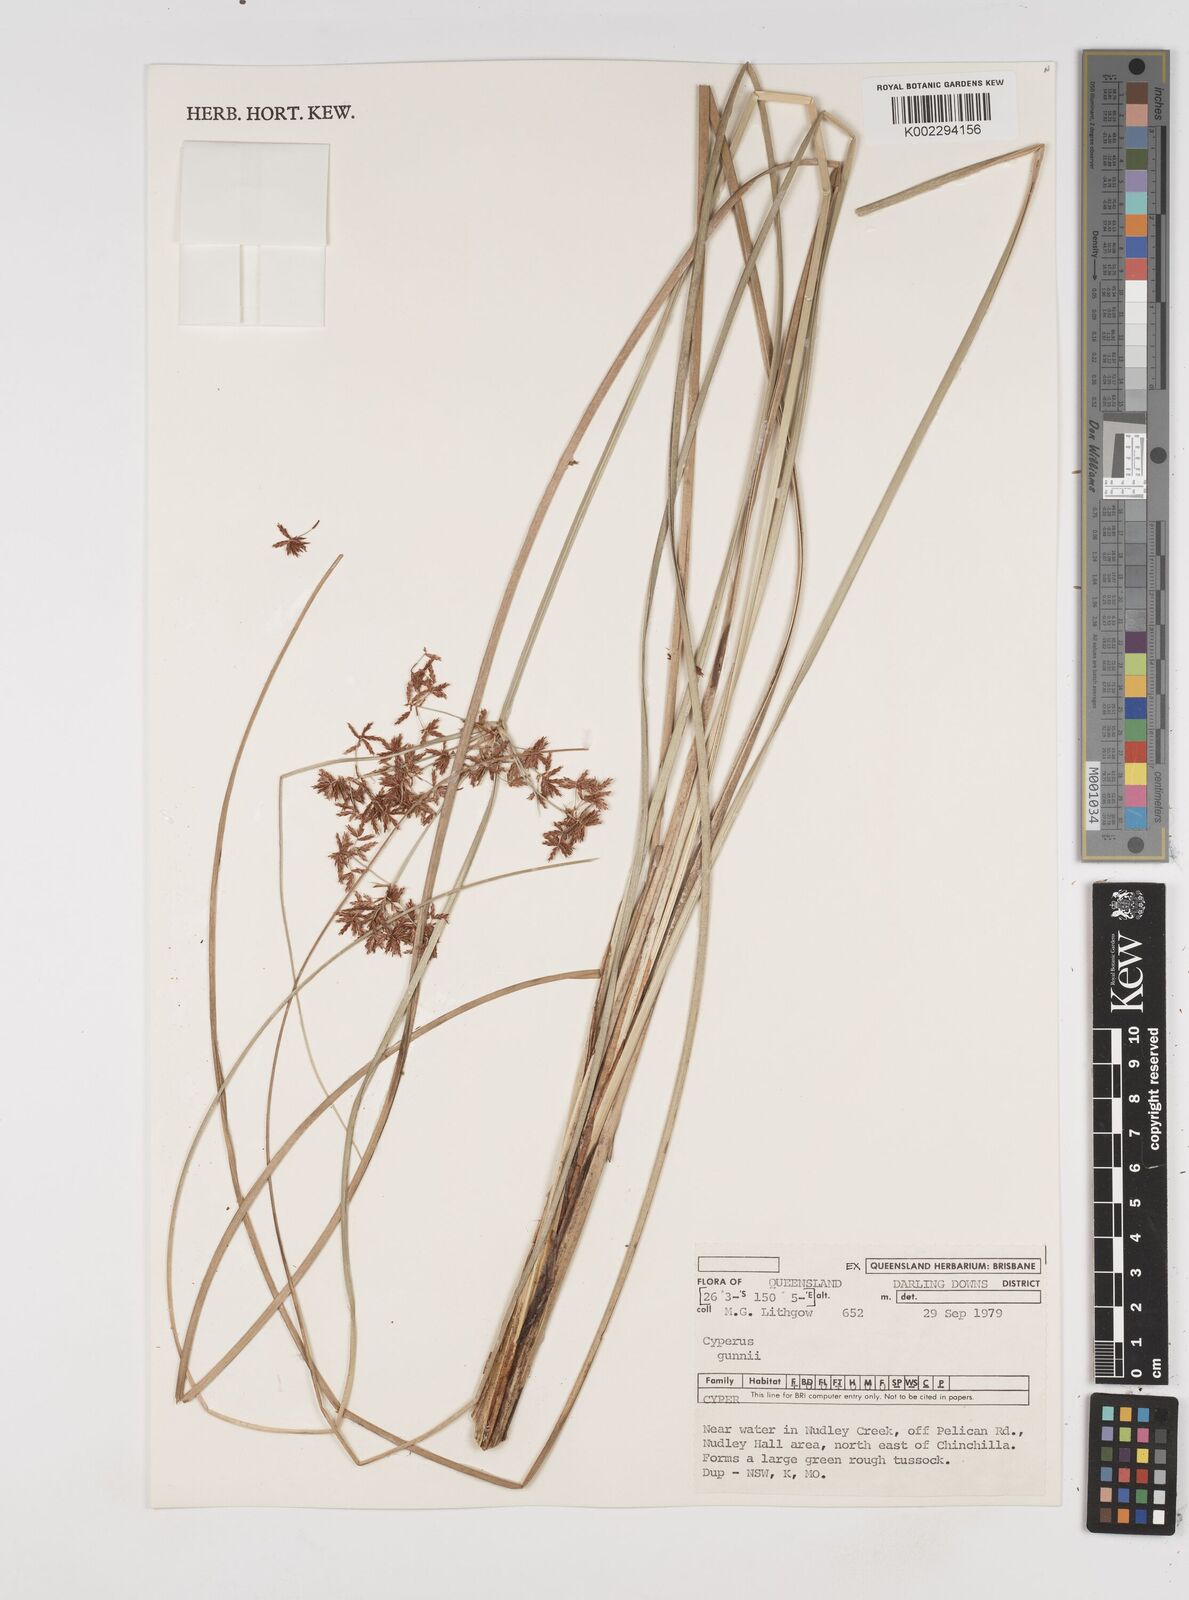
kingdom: Plantae
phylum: Tracheophyta
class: Liliopsida
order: Poales
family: Cyperaceae
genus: Cyperus
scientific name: Cyperus gunnii
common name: Flecked flat-sedge
